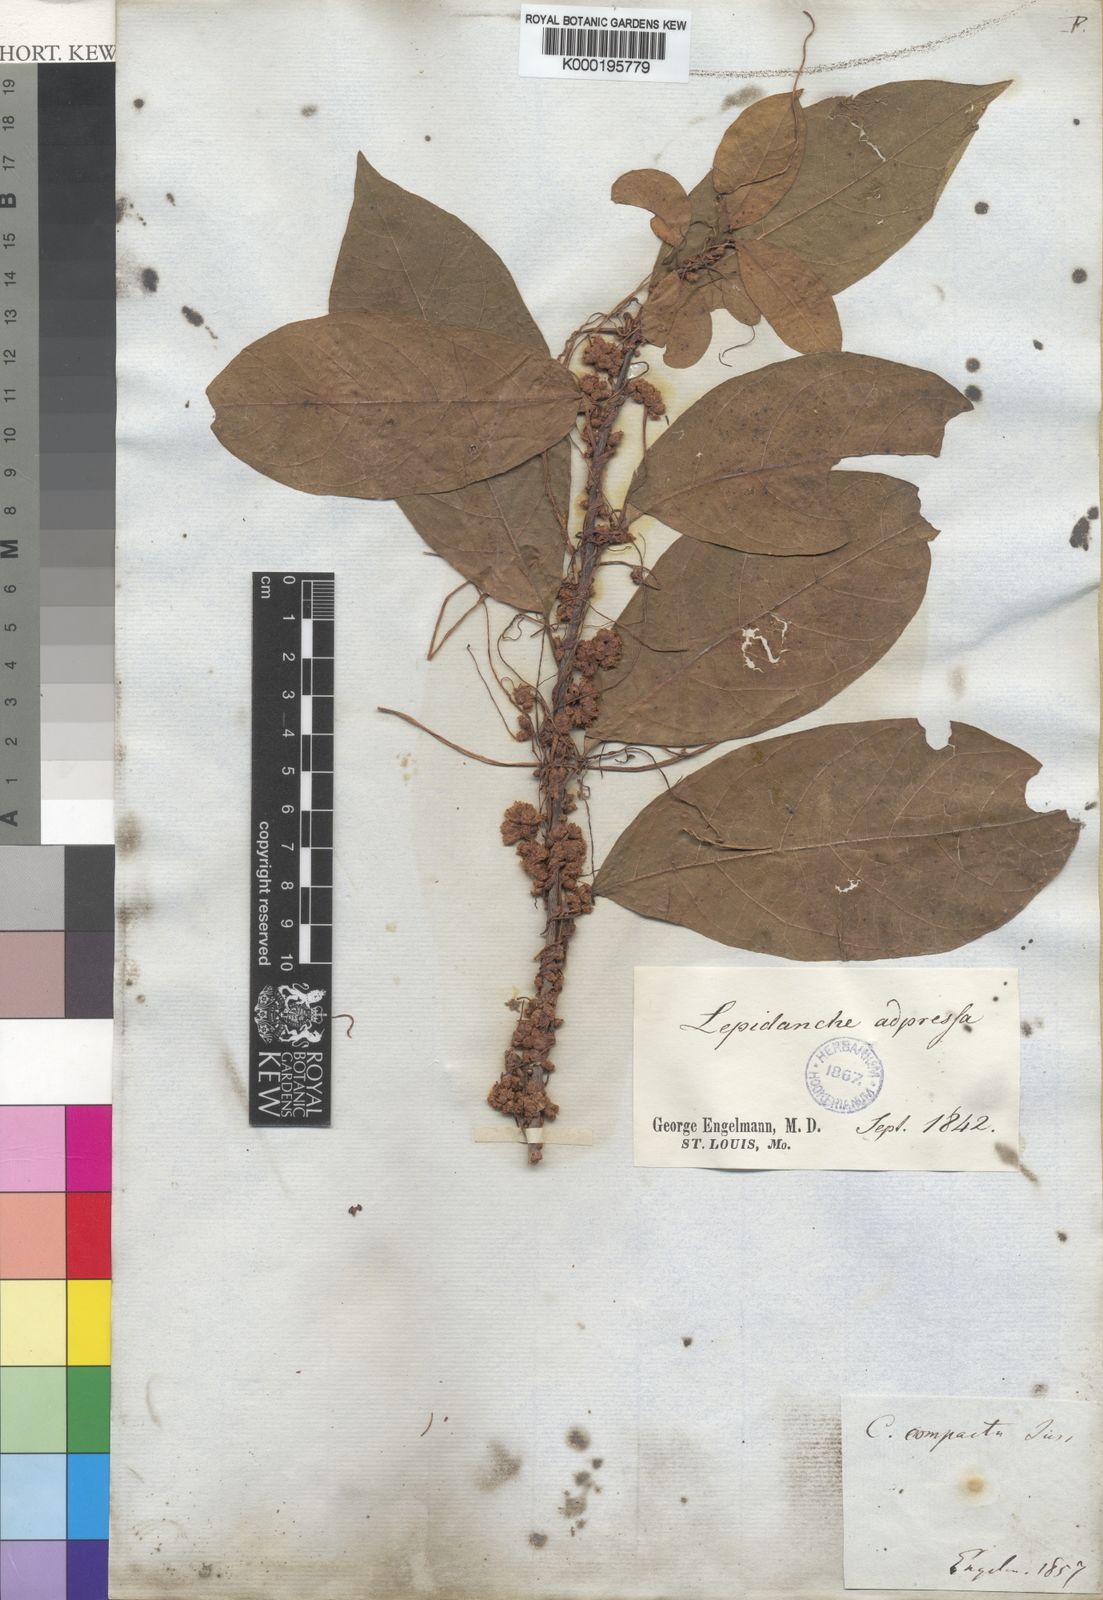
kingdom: Plantae
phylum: Tracheophyta
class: Magnoliopsida
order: Solanales
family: Convolvulaceae
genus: Cuscuta
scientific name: Cuscuta compacta
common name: Compact dodder
